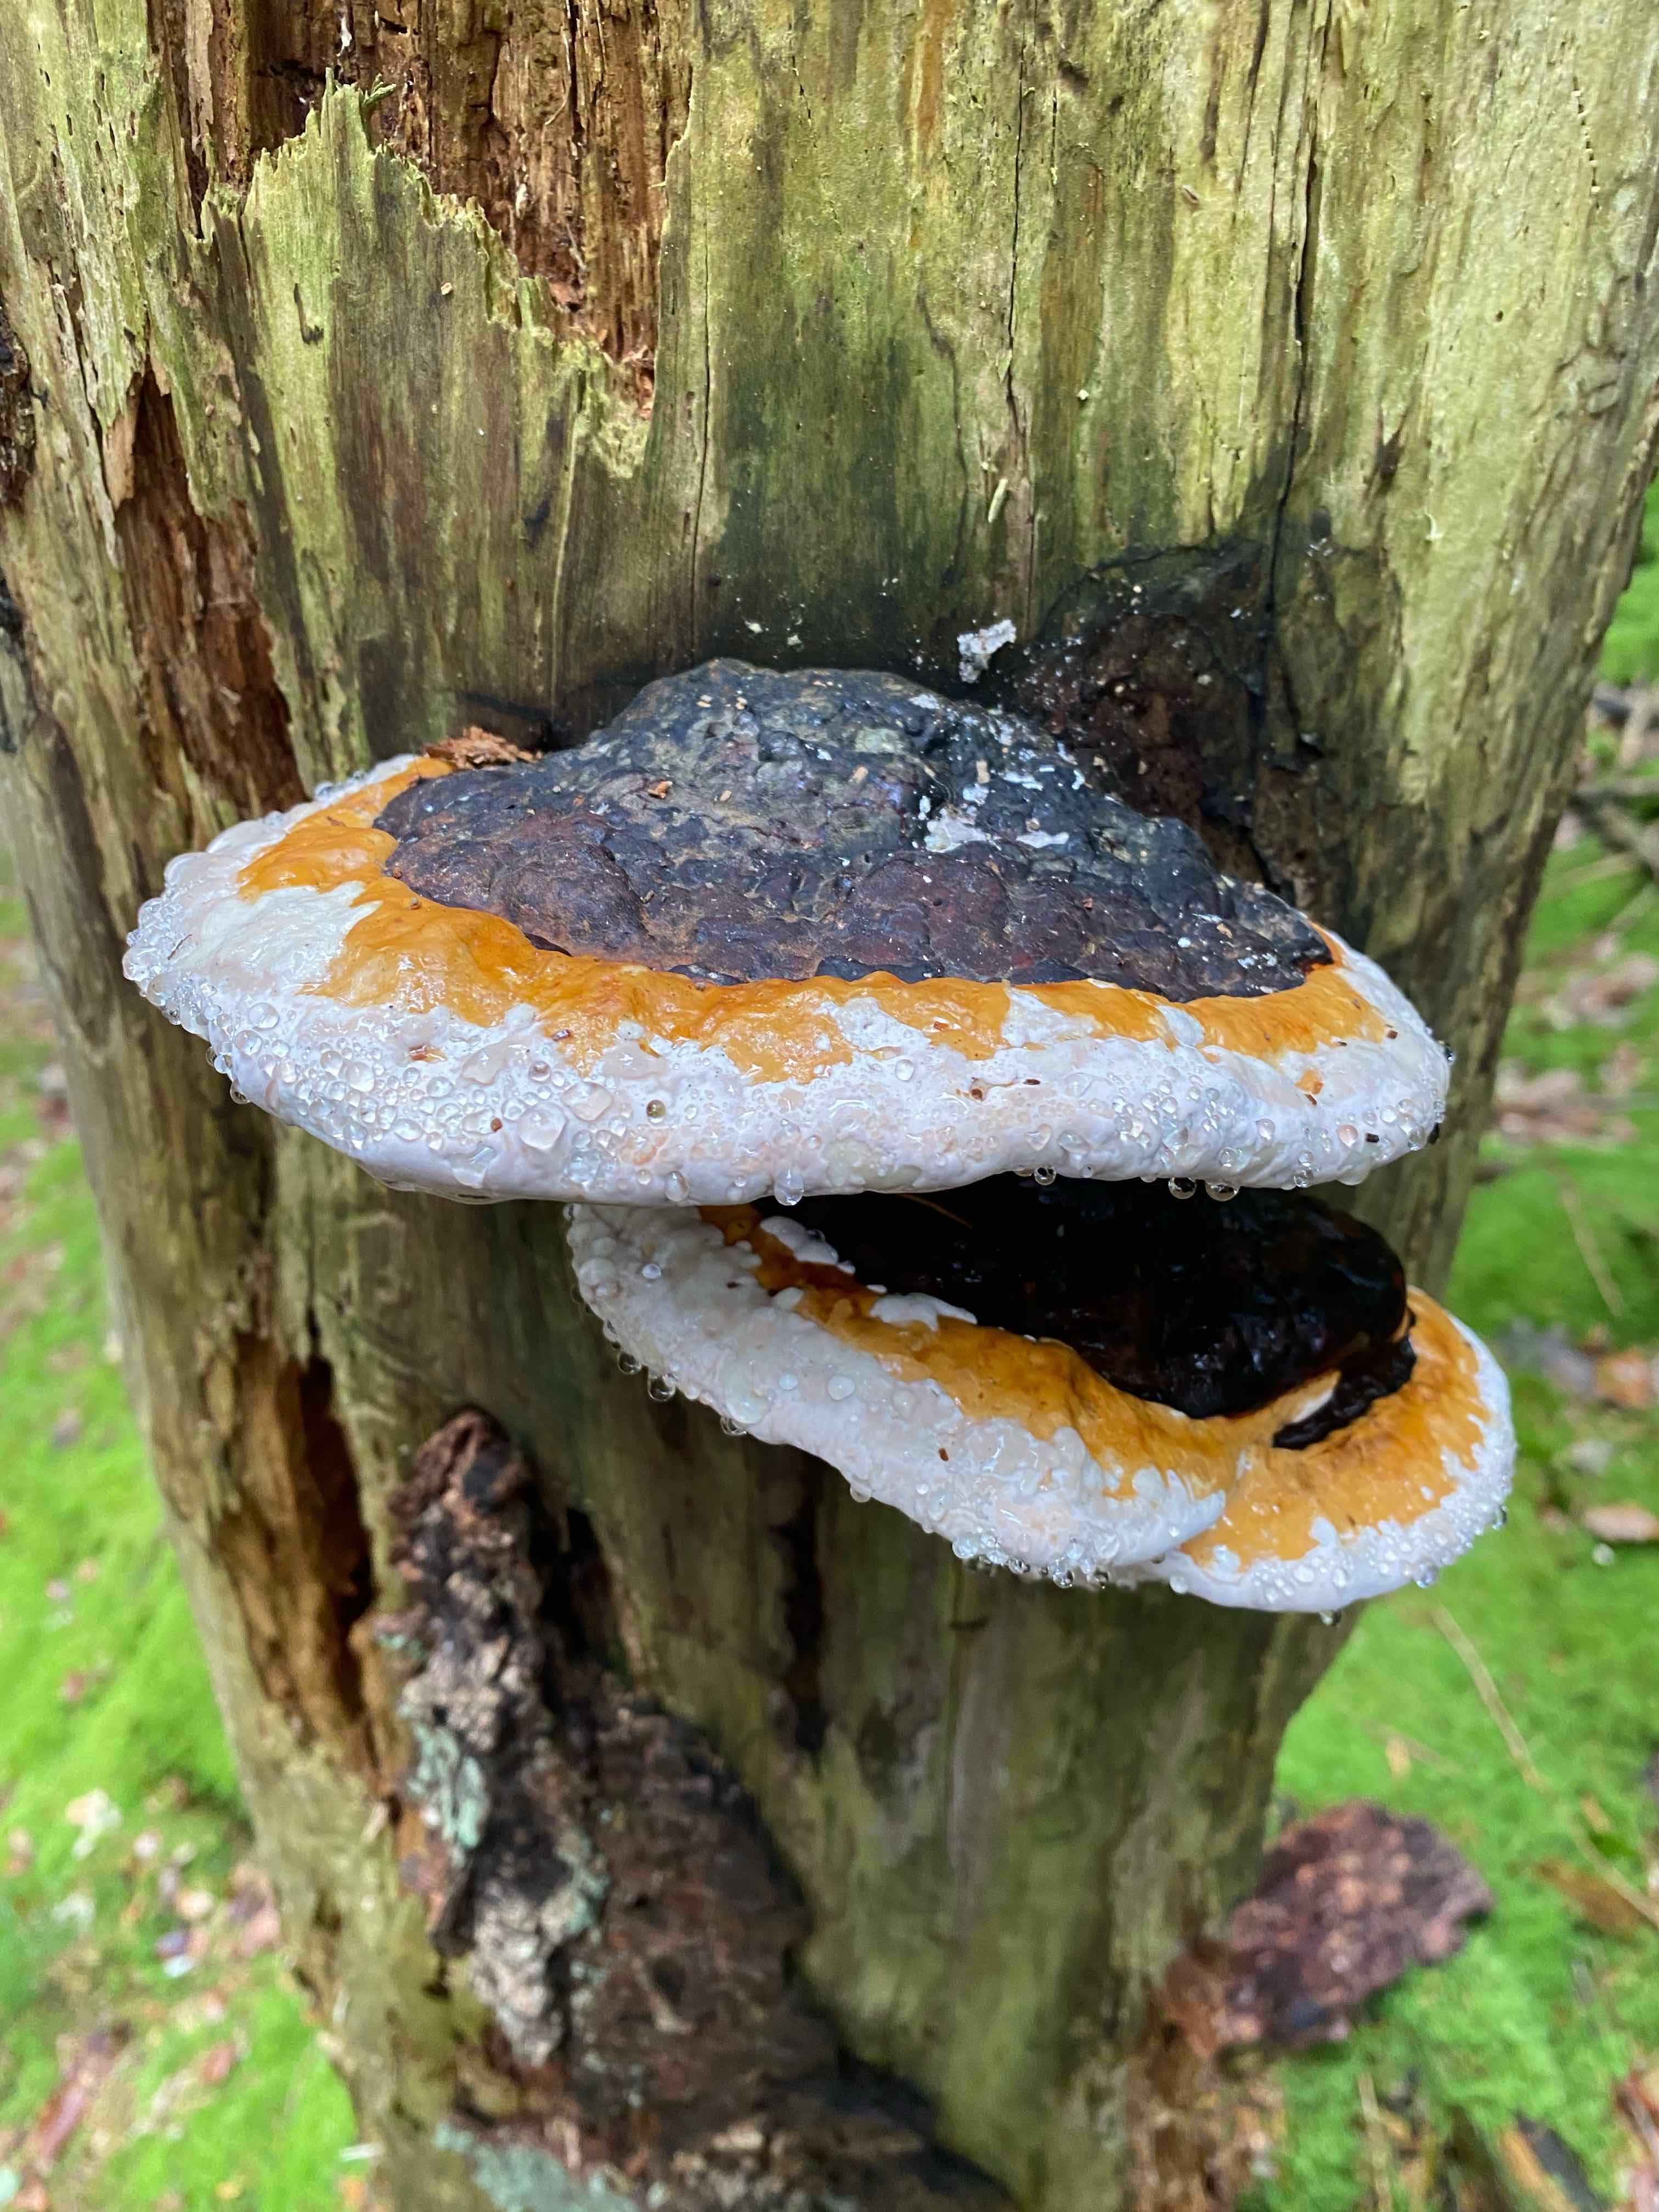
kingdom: Fungi
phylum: Basidiomycota
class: Agaricomycetes
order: Polyporales
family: Fomitopsidaceae
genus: Fomitopsis
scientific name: Fomitopsis pinicola
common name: randbæltet hovporesvamp
